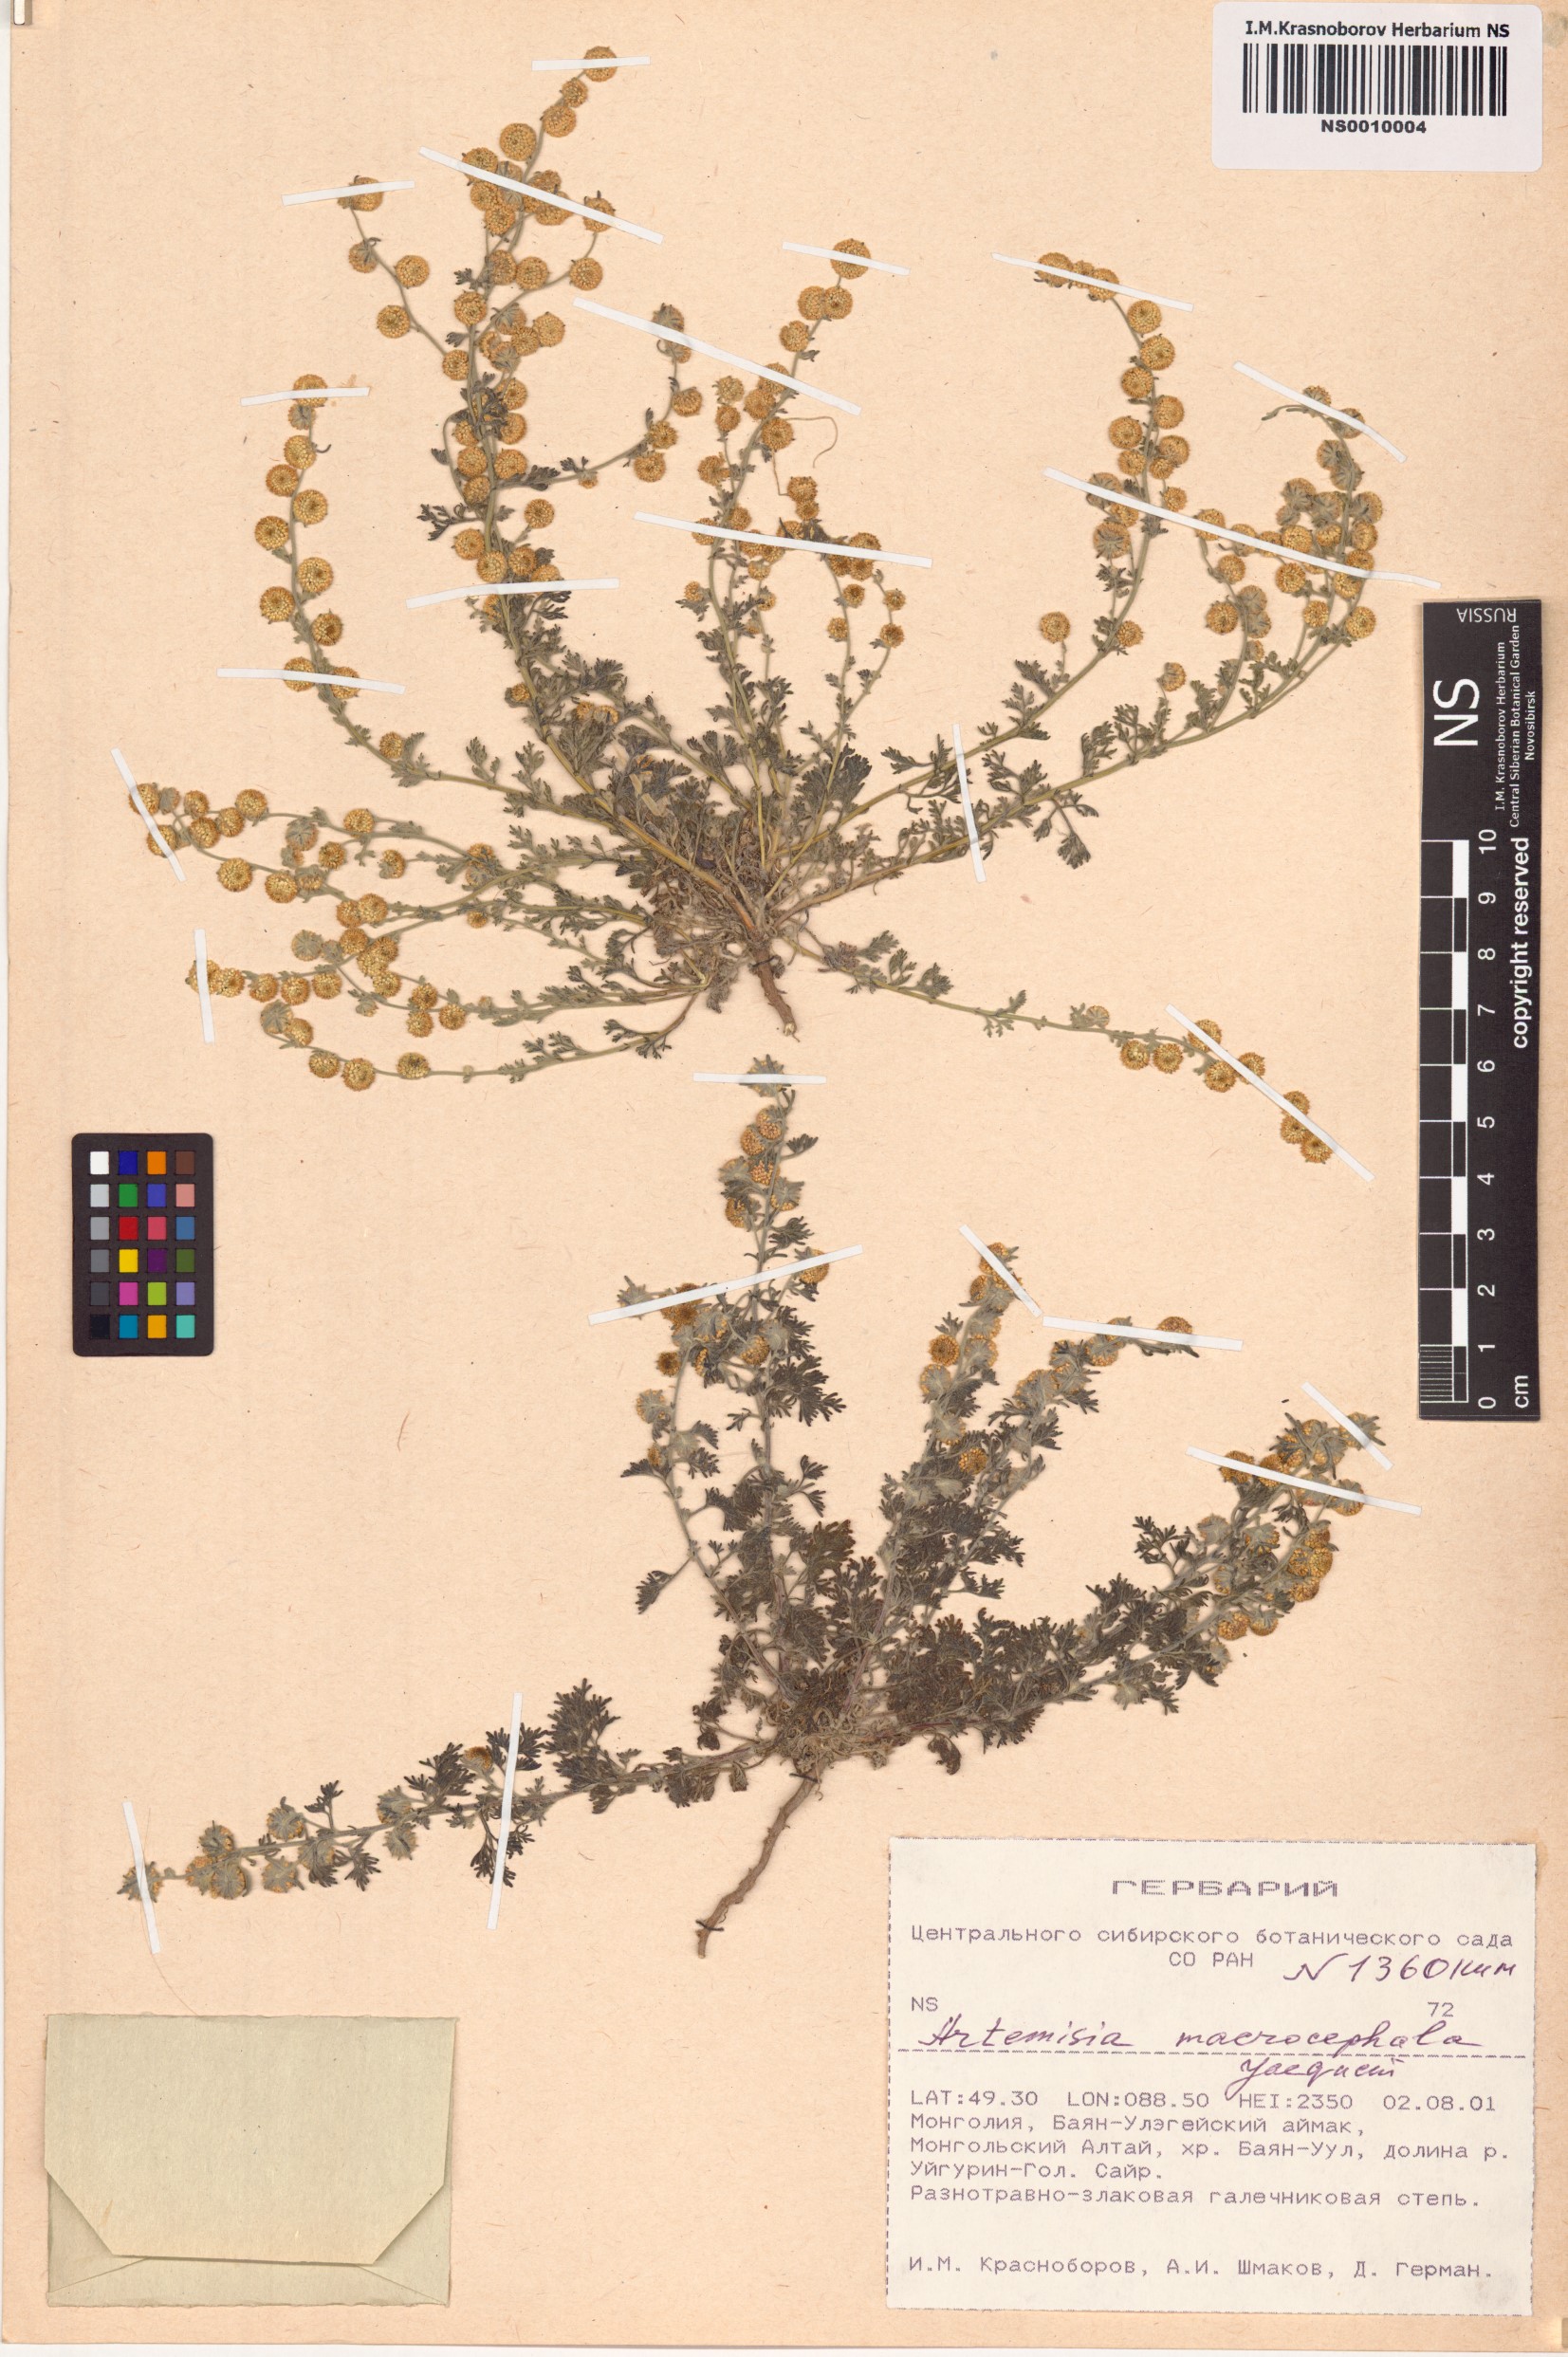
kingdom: Plantae
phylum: Tracheophyta
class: Magnoliopsida
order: Asterales
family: Asteraceae
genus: Artemisia
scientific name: Artemisia macrocephala
